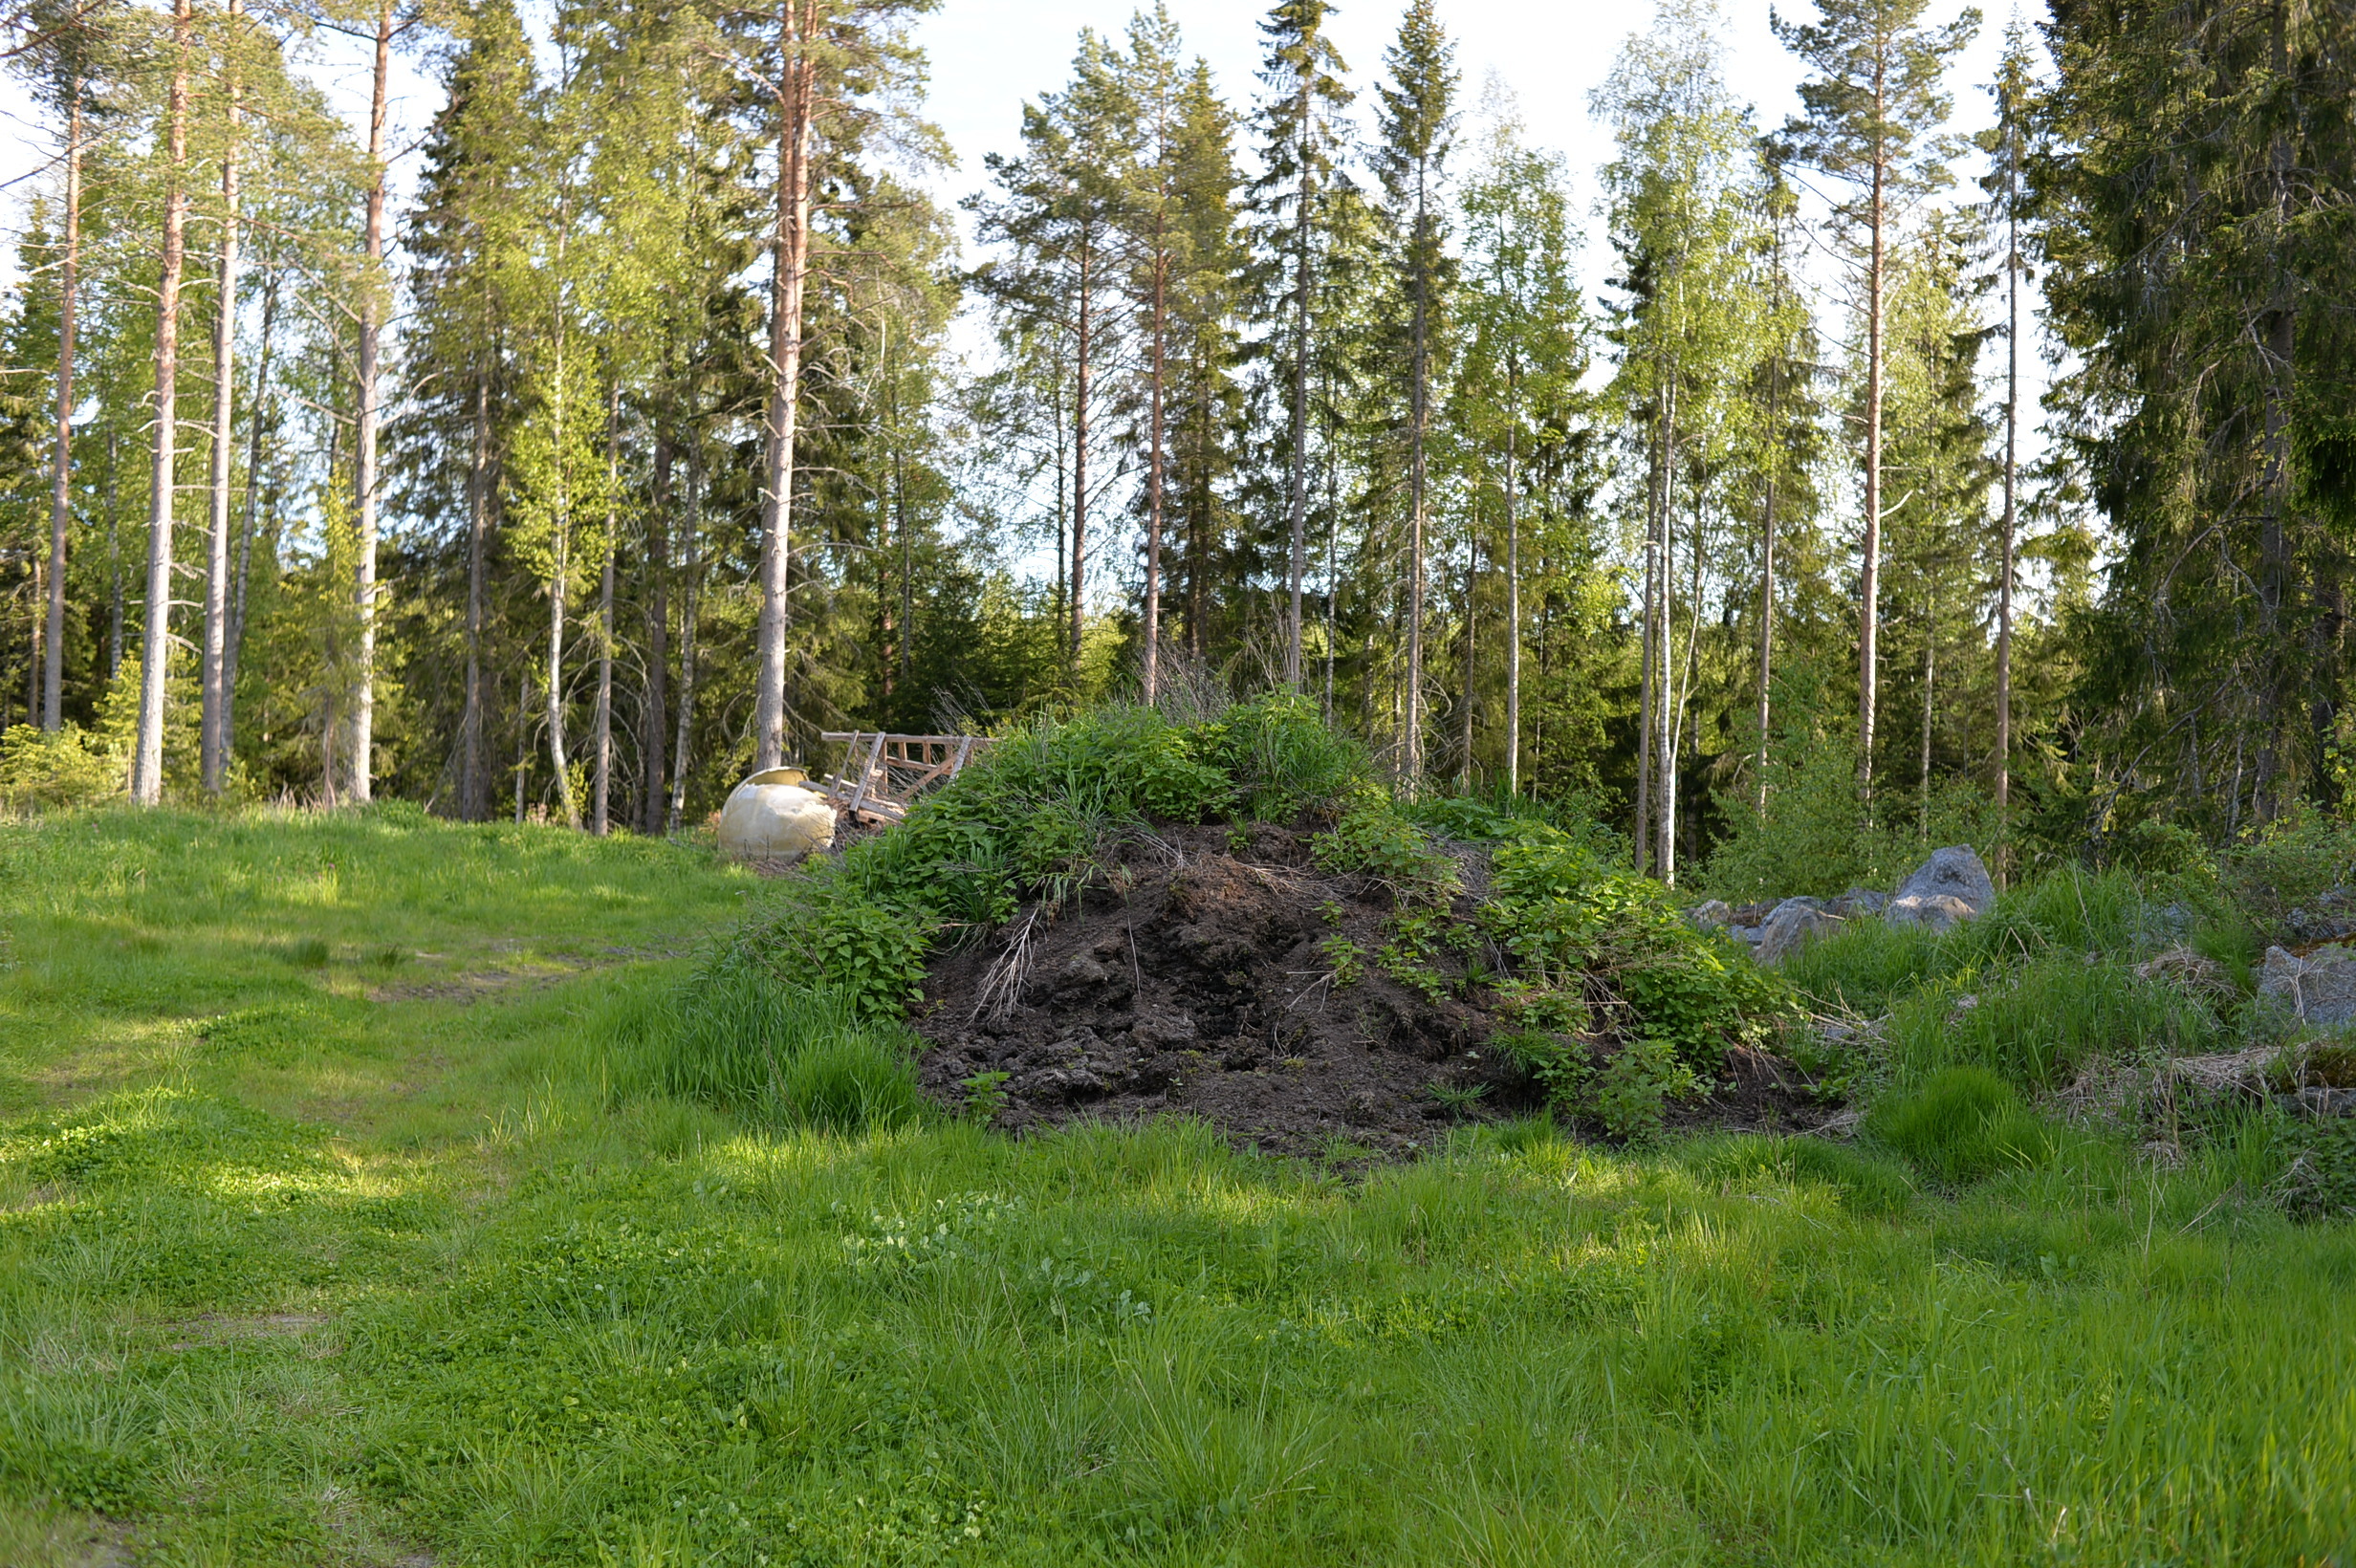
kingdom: Plantae
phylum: Tracheophyta
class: Magnoliopsida
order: Ericales
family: Balsaminaceae
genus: Impatiens
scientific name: Impatiens glandulifera
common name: Himalayan balsam
